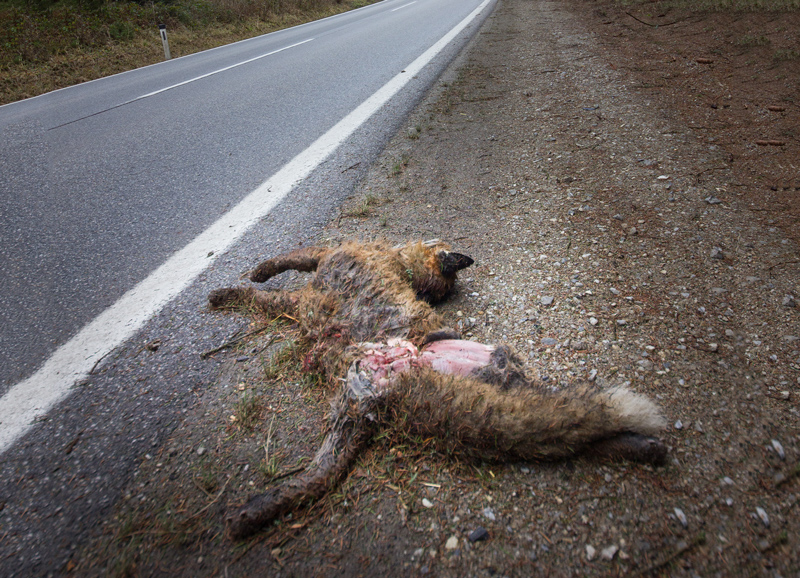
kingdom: Animalia
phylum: Chordata
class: Mammalia
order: Carnivora
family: Canidae
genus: Vulpes
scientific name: Vulpes vulpes
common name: Red fox
